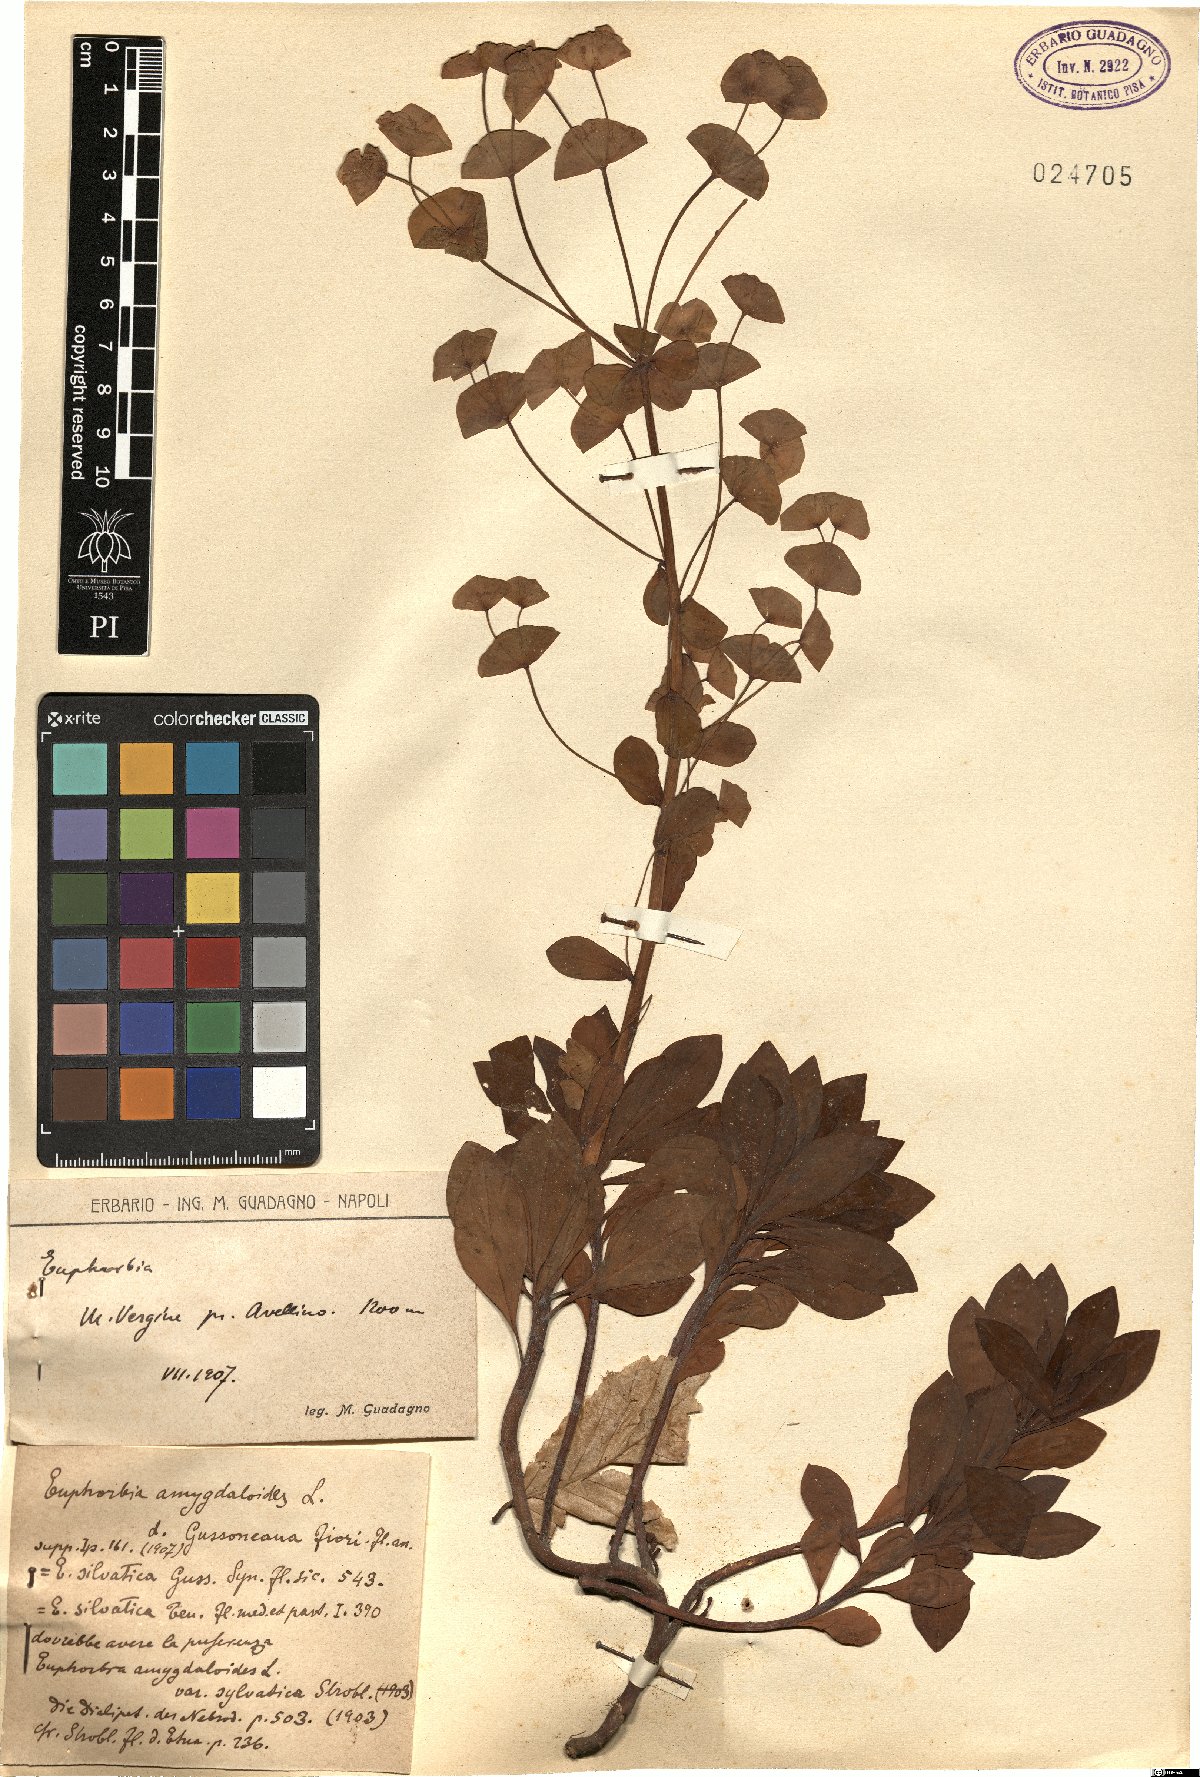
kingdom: Plantae
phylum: Tracheophyta
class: Magnoliopsida
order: Malpighiales
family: Euphorbiaceae
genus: Euphorbia
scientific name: Euphorbia amygdaloides
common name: Wood spurge
